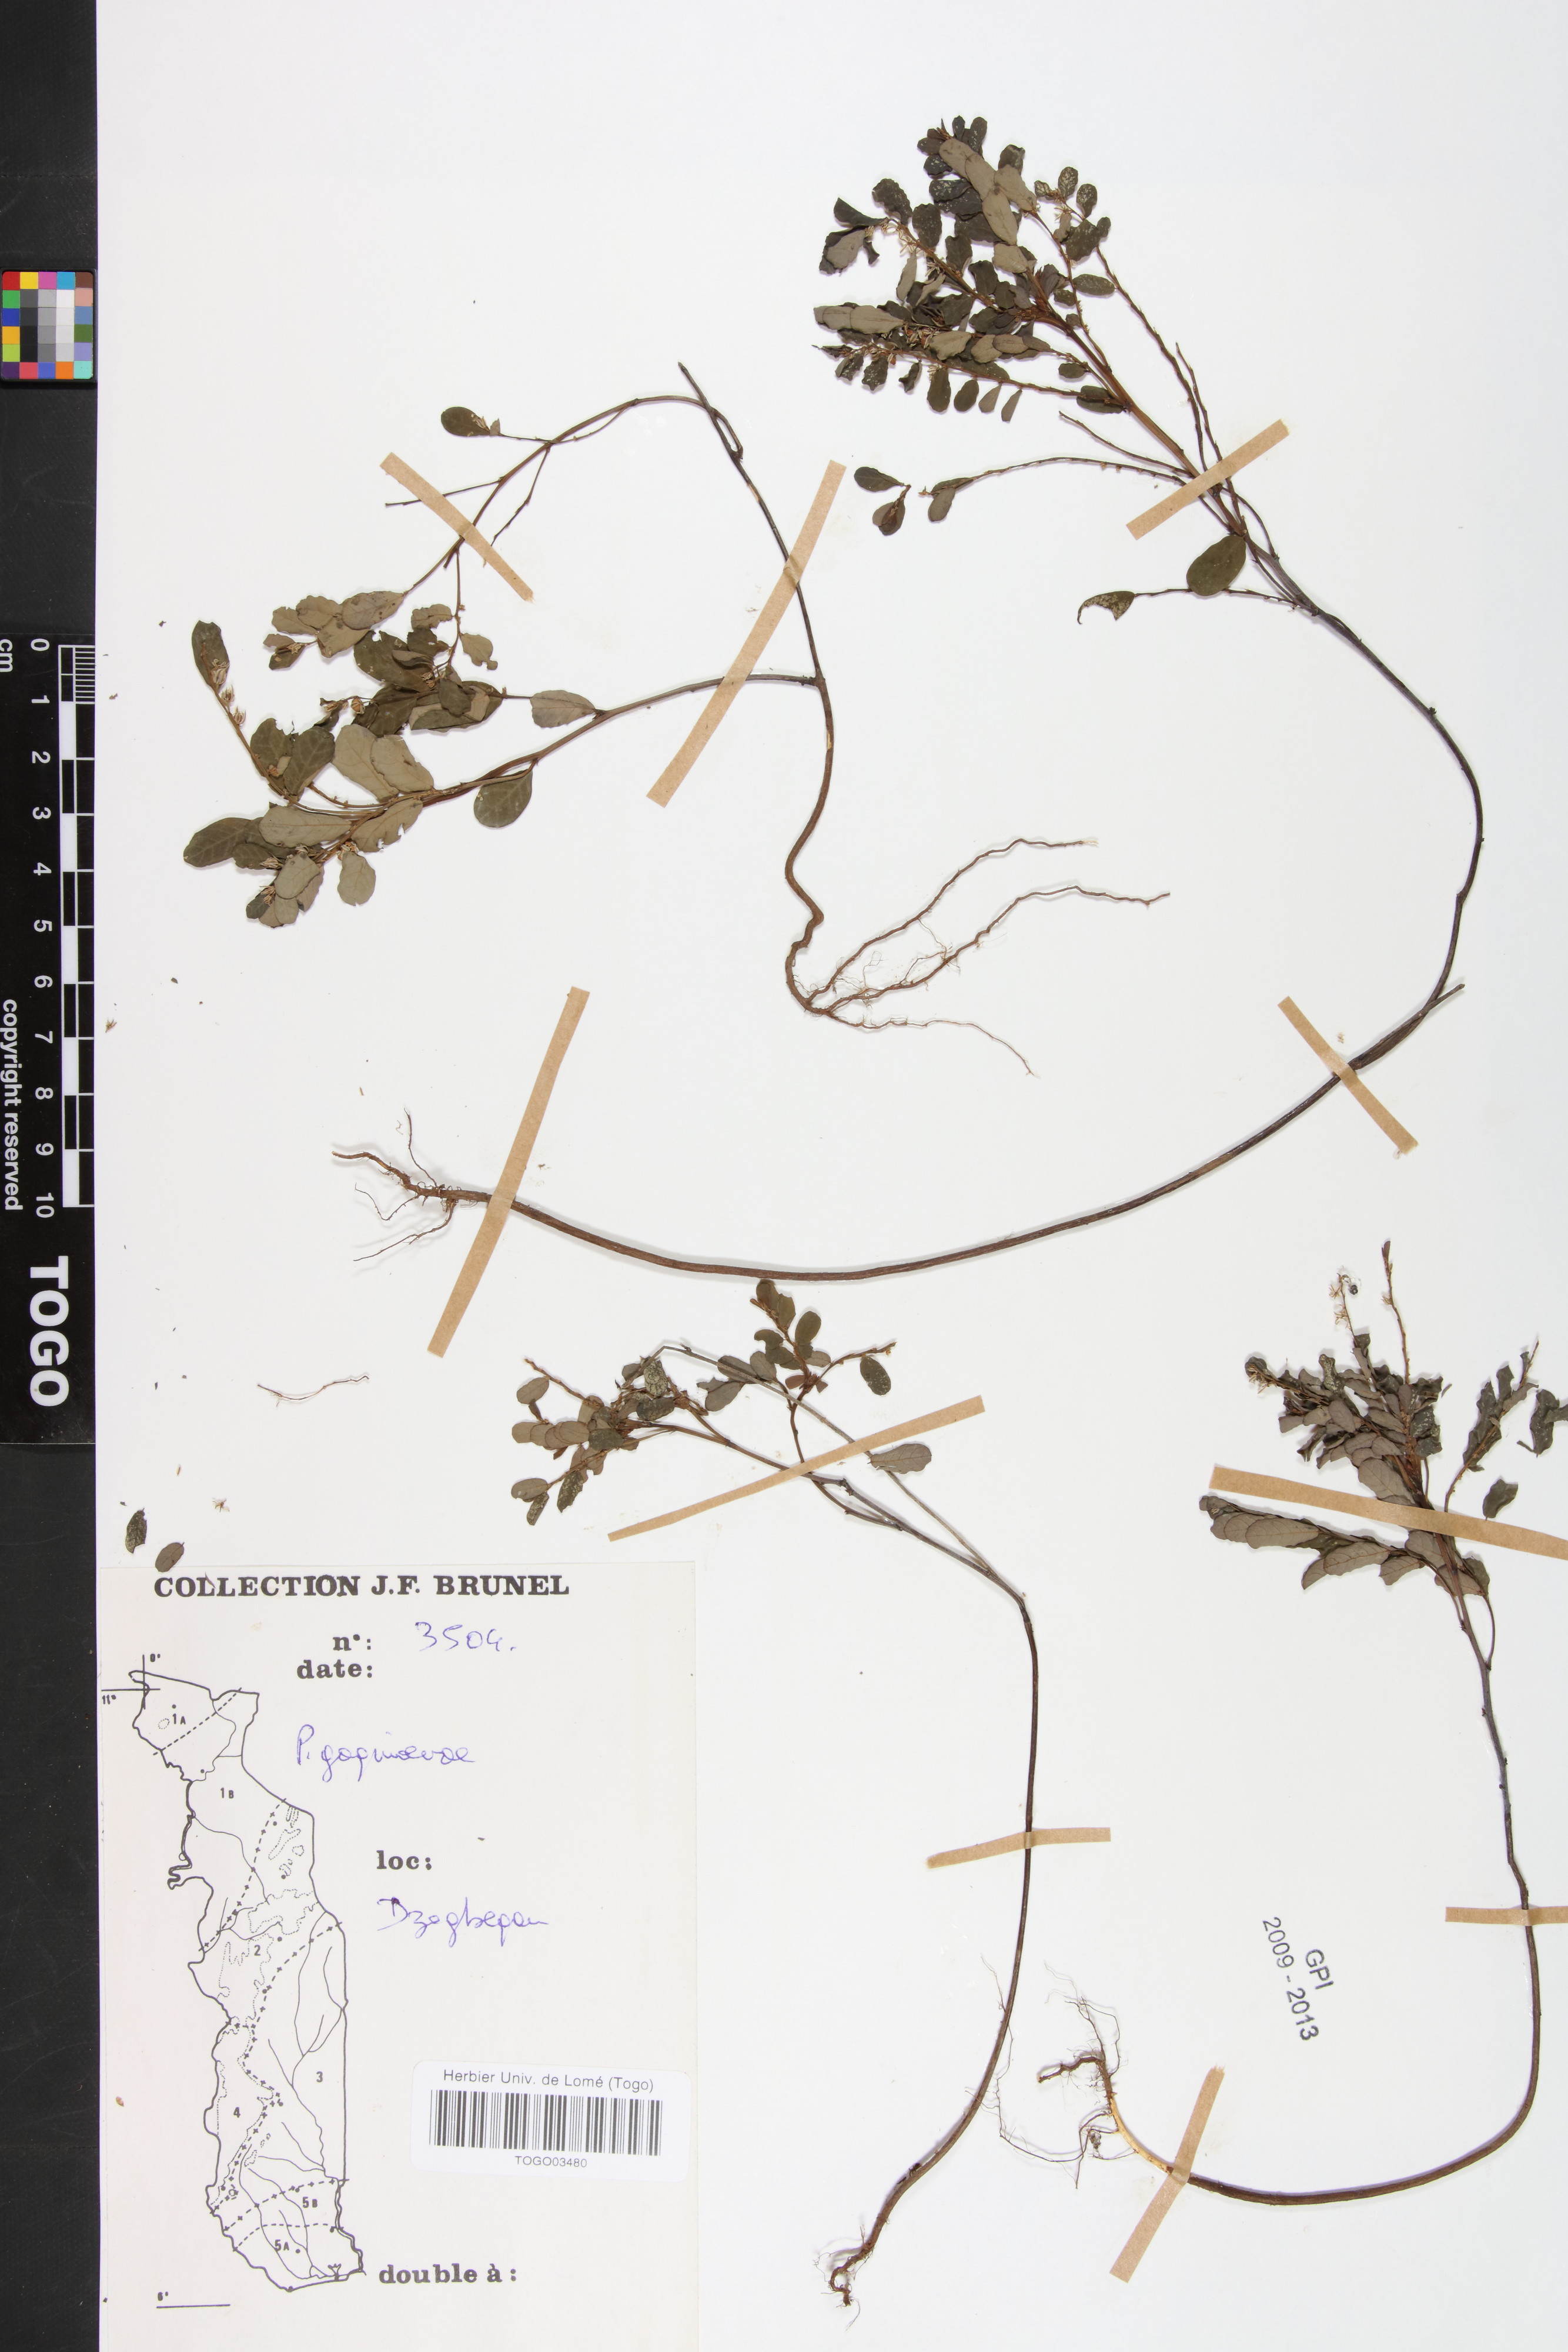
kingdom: Plantae
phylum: Tracheophyta
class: Magnoliopsida
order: Malpighiales
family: Phyllanthaceae
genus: Phyllanthus
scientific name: Phyllanthus gagnioevae
